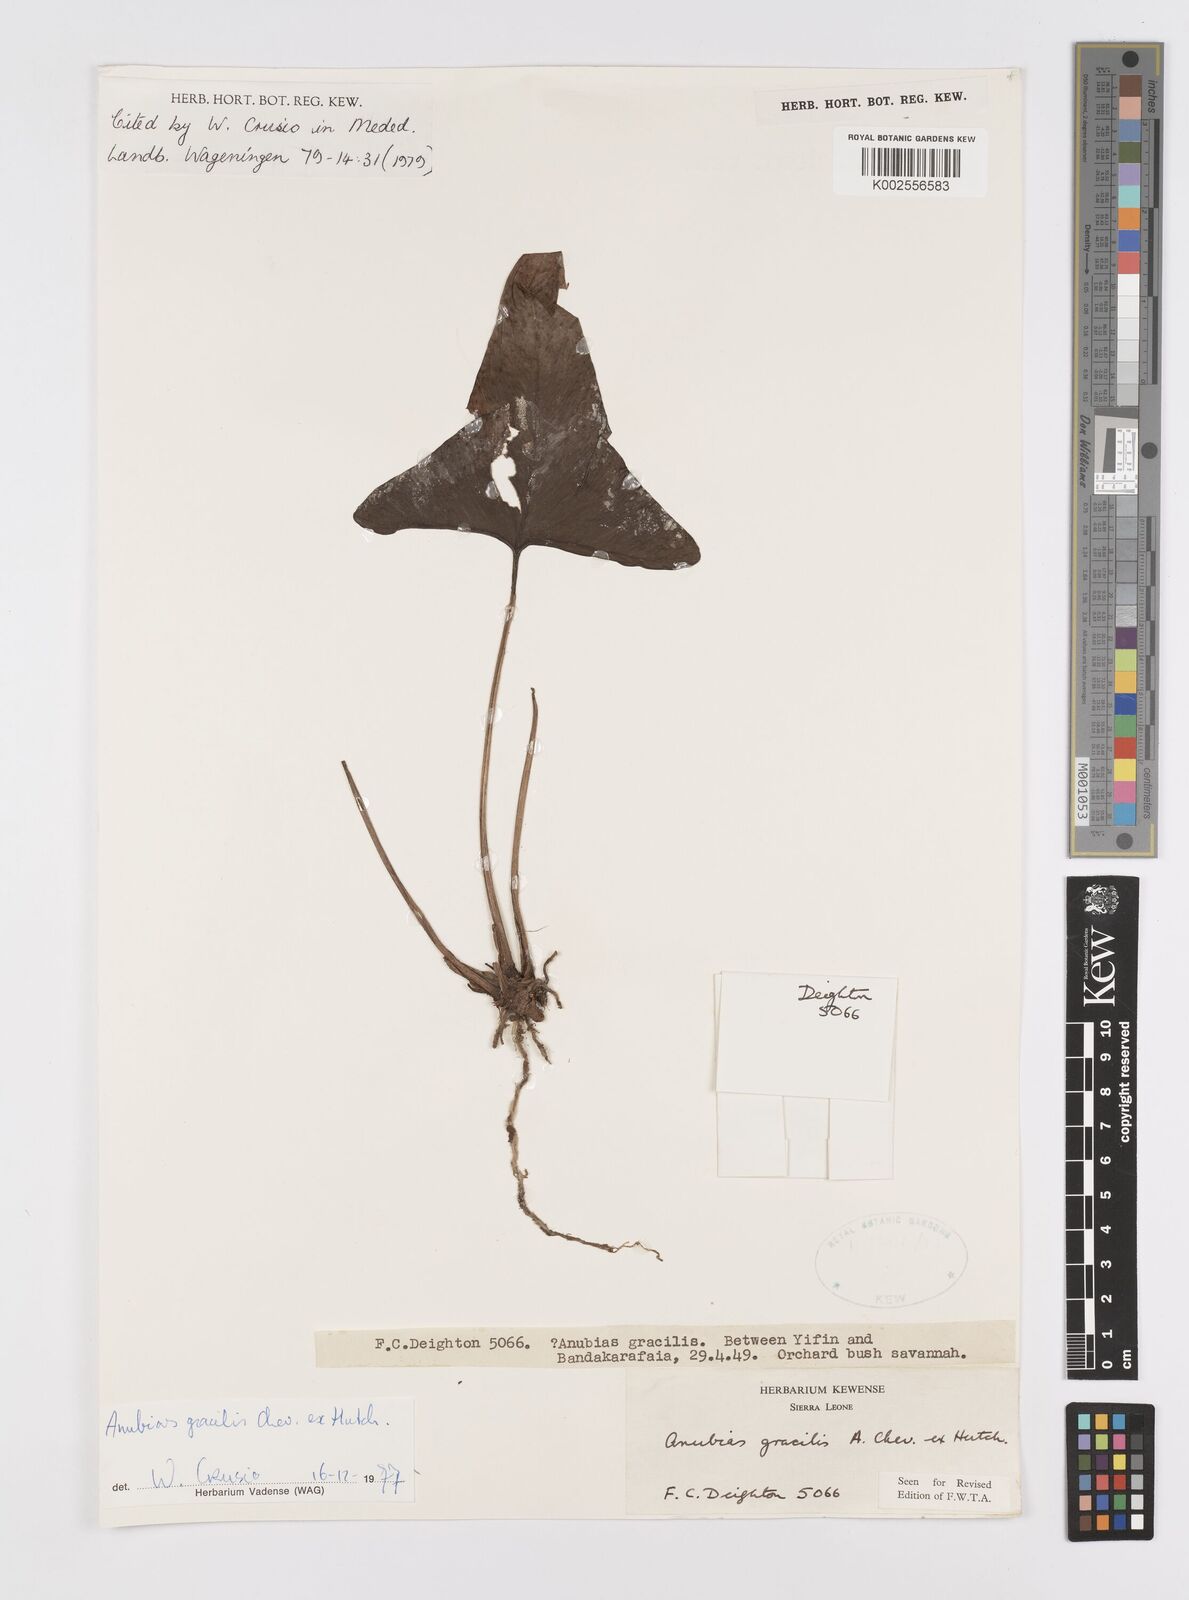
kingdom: Plantae
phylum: Tracheophyta
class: Liliopsida
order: Alismatales
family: Araceae
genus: Anubias
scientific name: Anubias gracilis
